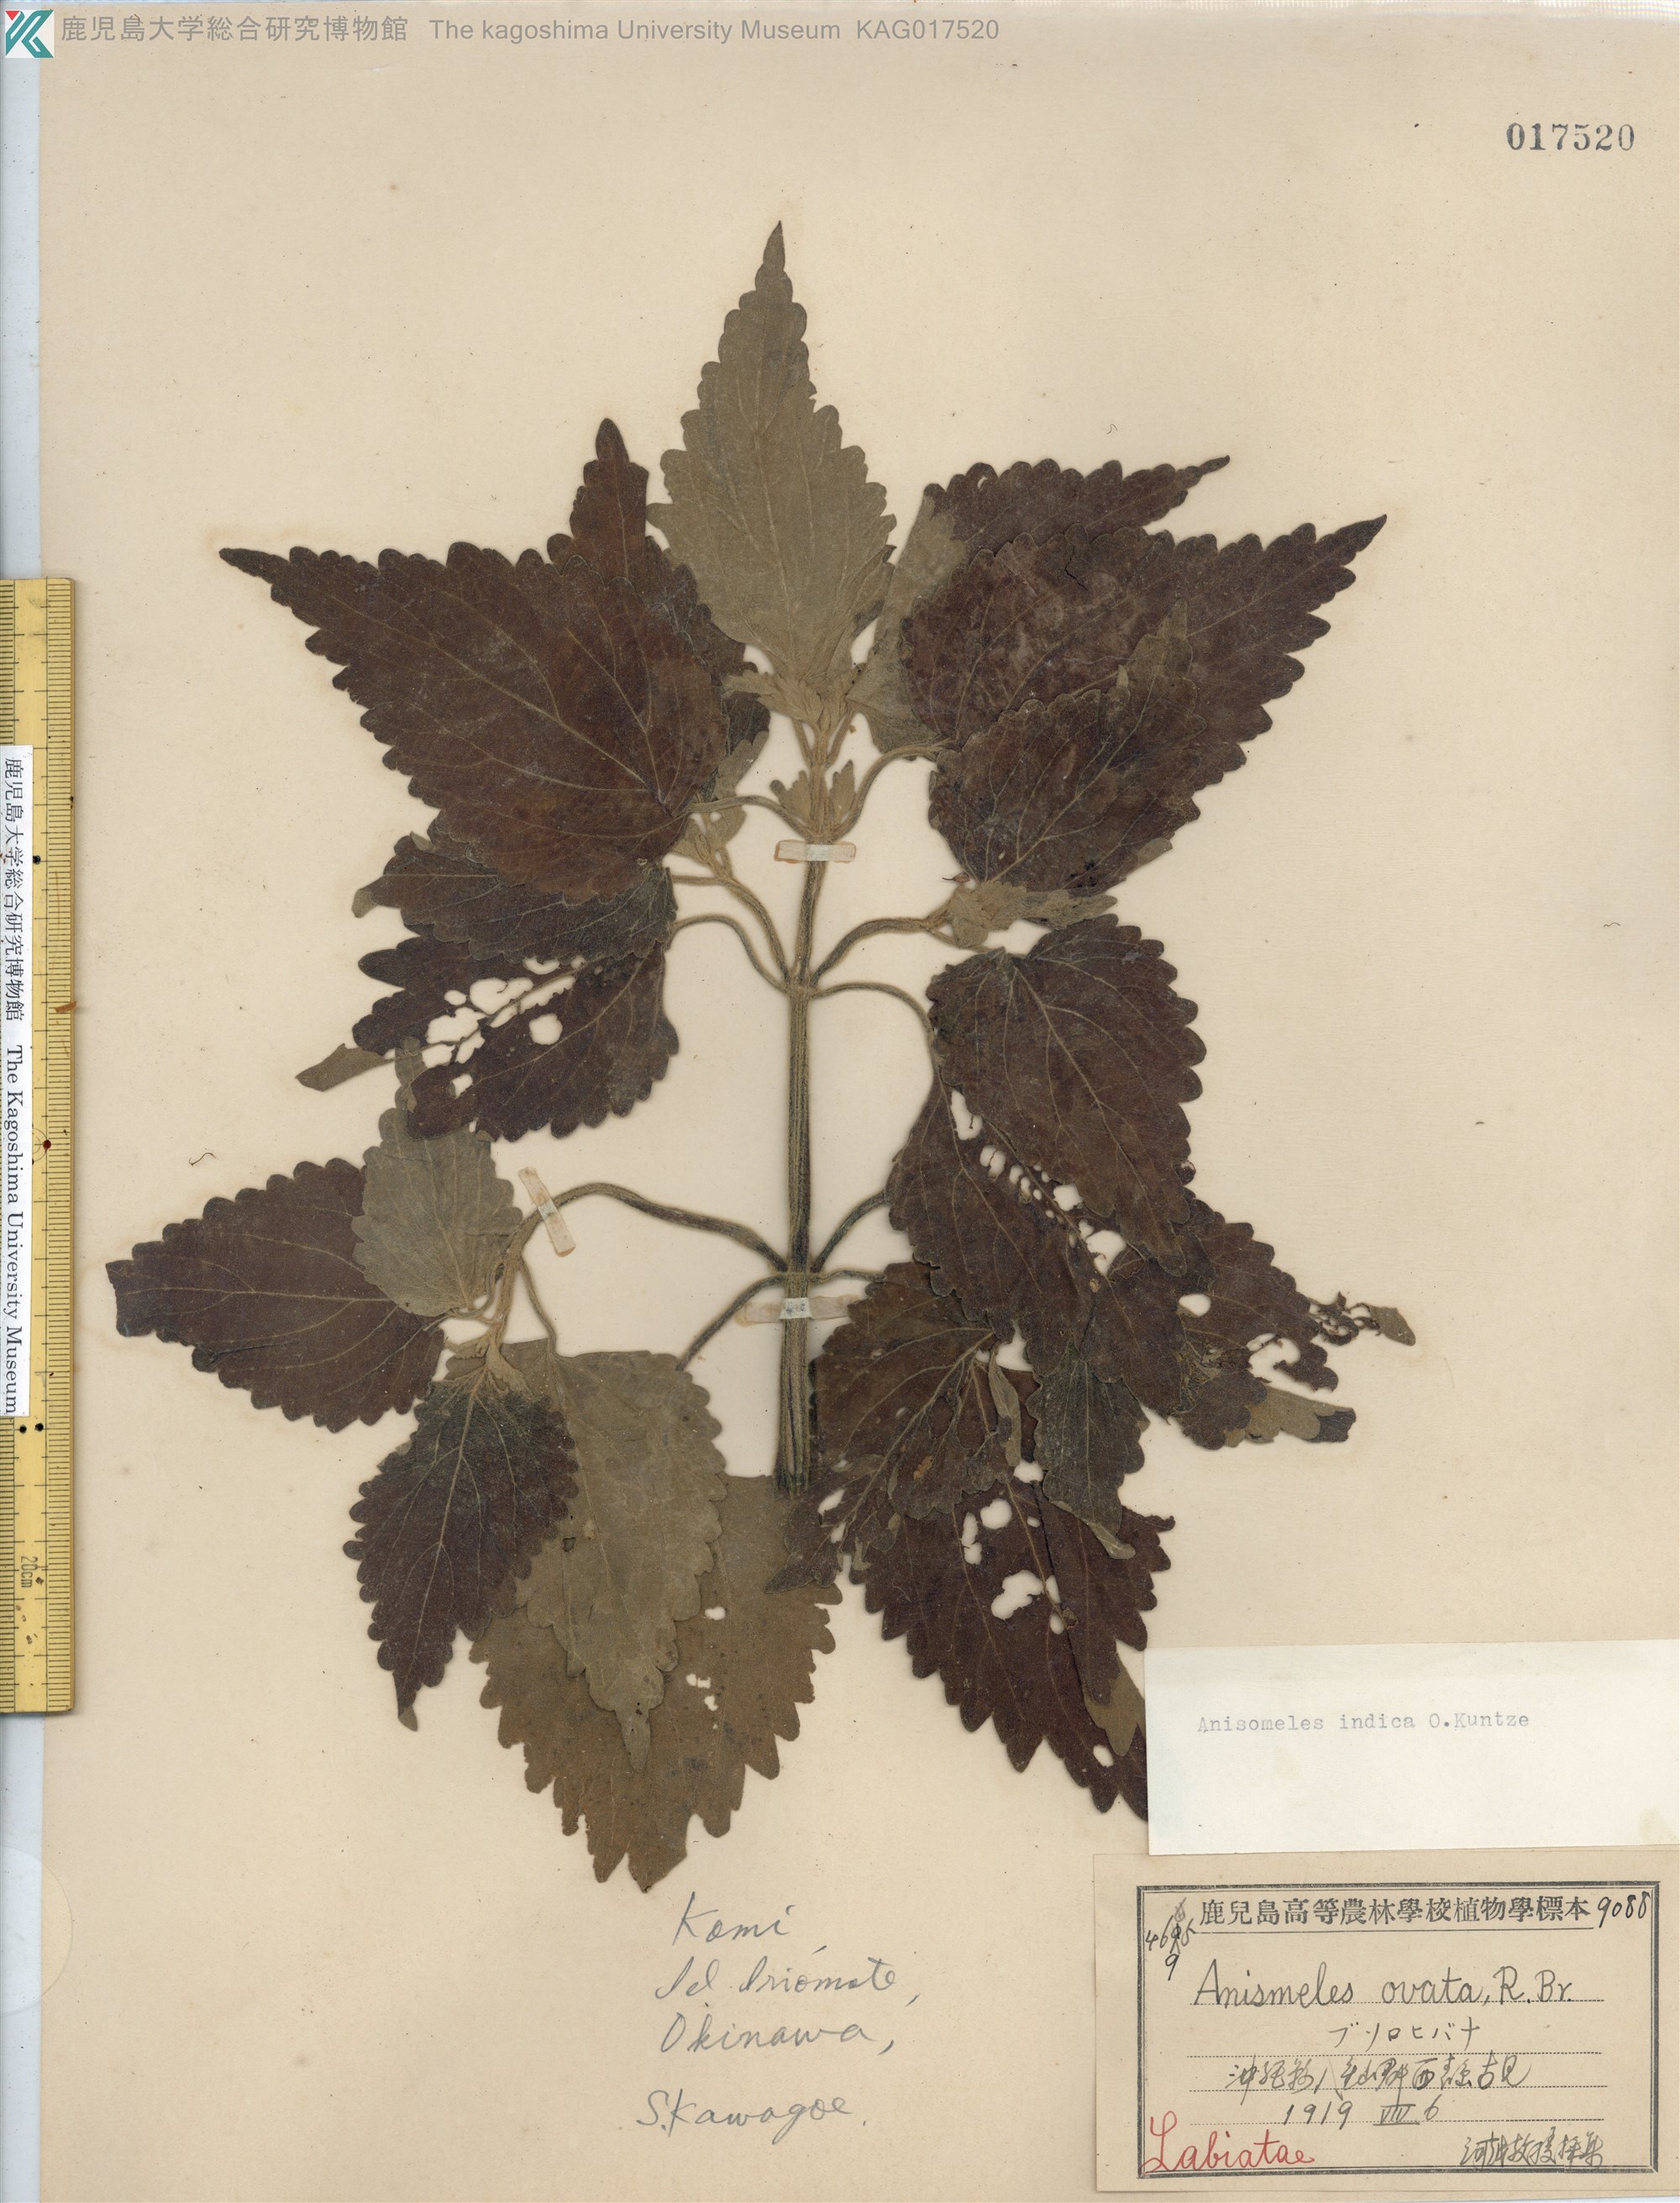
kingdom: Plantae
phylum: Tracheophyta
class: Magnoliopsida
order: Lamiales
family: Lamiaceae
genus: Anisomeles
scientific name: Anisomeles indica
